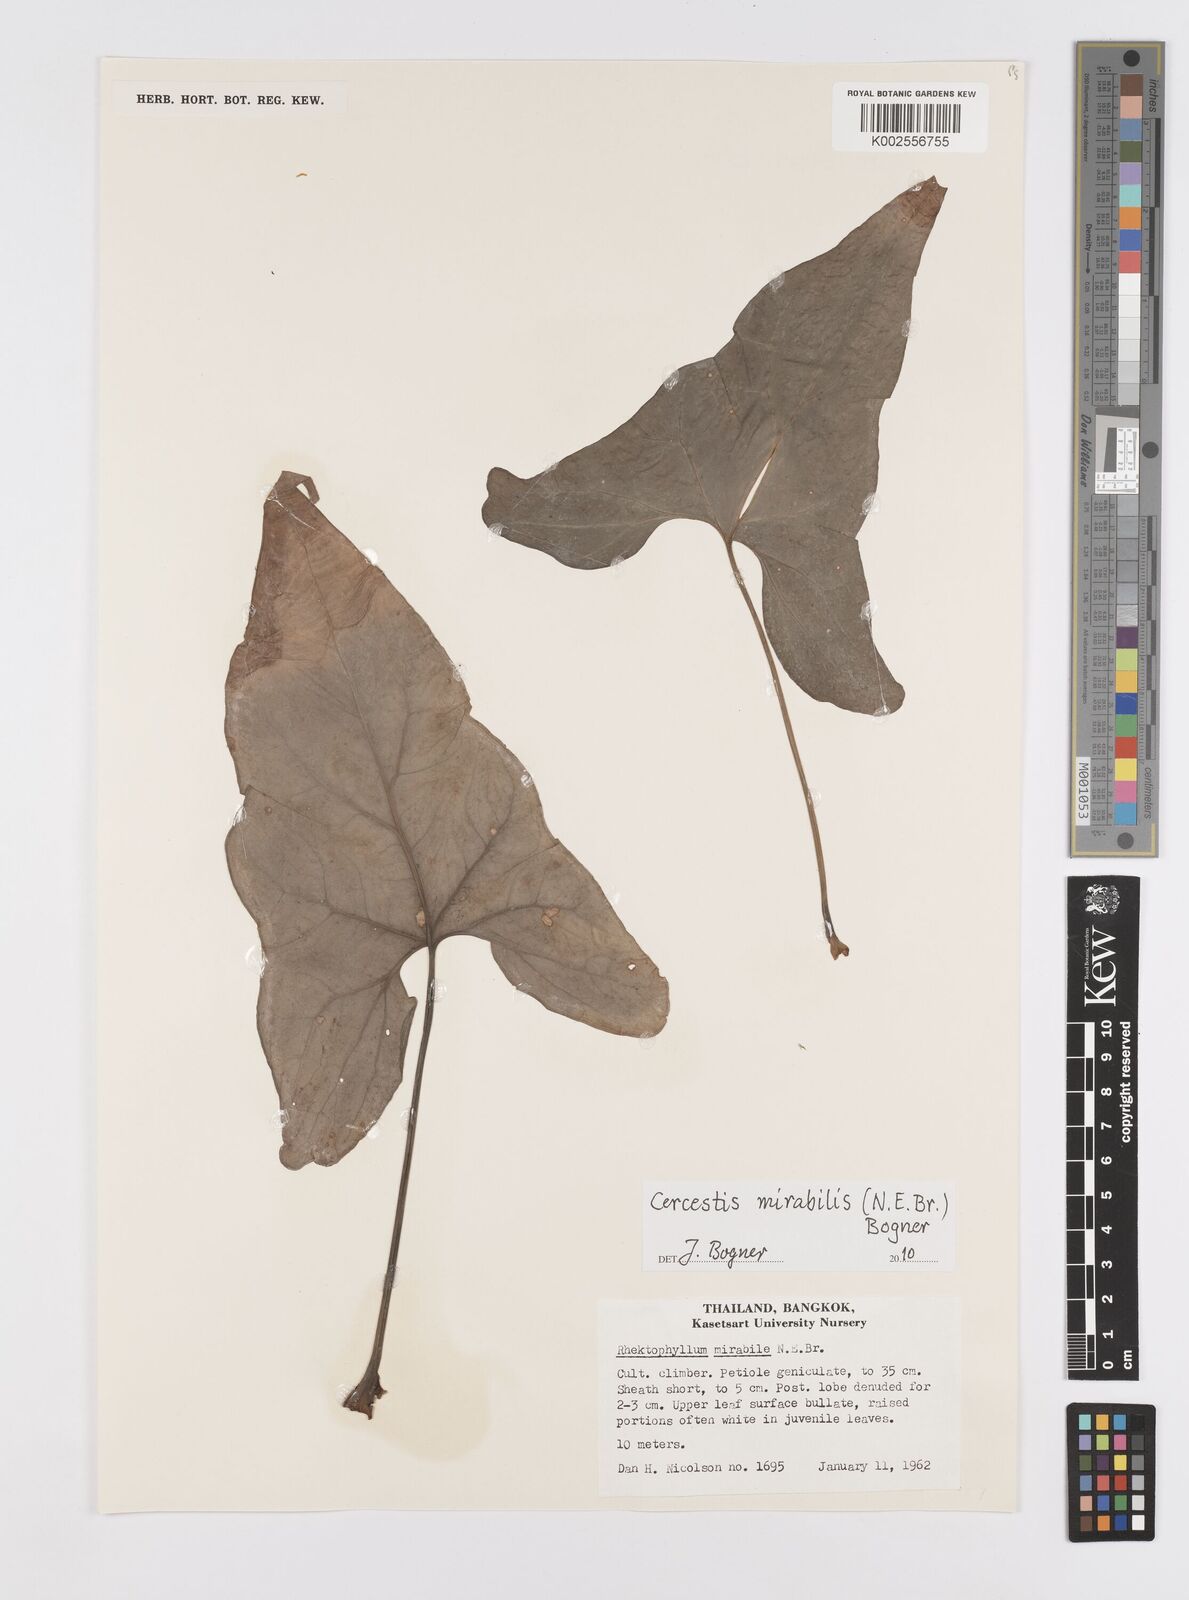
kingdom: Plantae
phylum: Tracheophyta
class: Liliopsida
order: Alismatales
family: Araceae
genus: Cercestis
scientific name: Cercestis mirabilis
